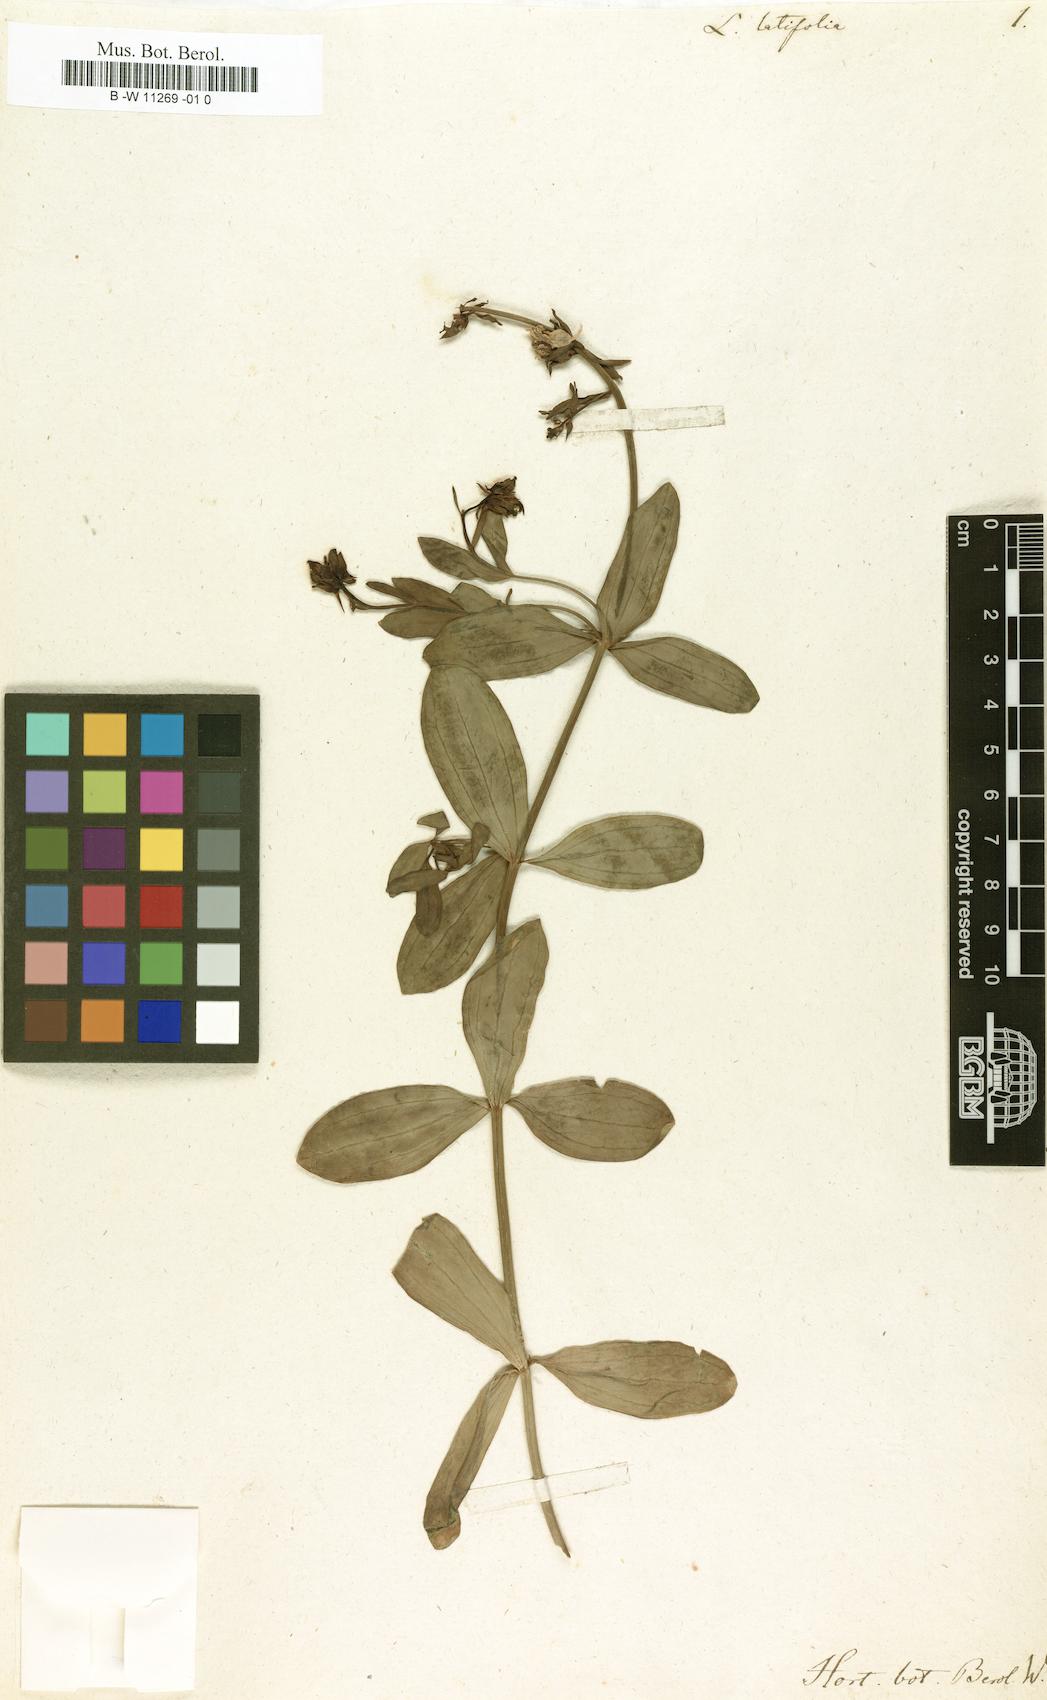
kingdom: Plantae
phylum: Tracheophyta
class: Magnoliopsida
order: Lamiales
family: Plantaginaceae
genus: Linaria
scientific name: Linaria latifolia
